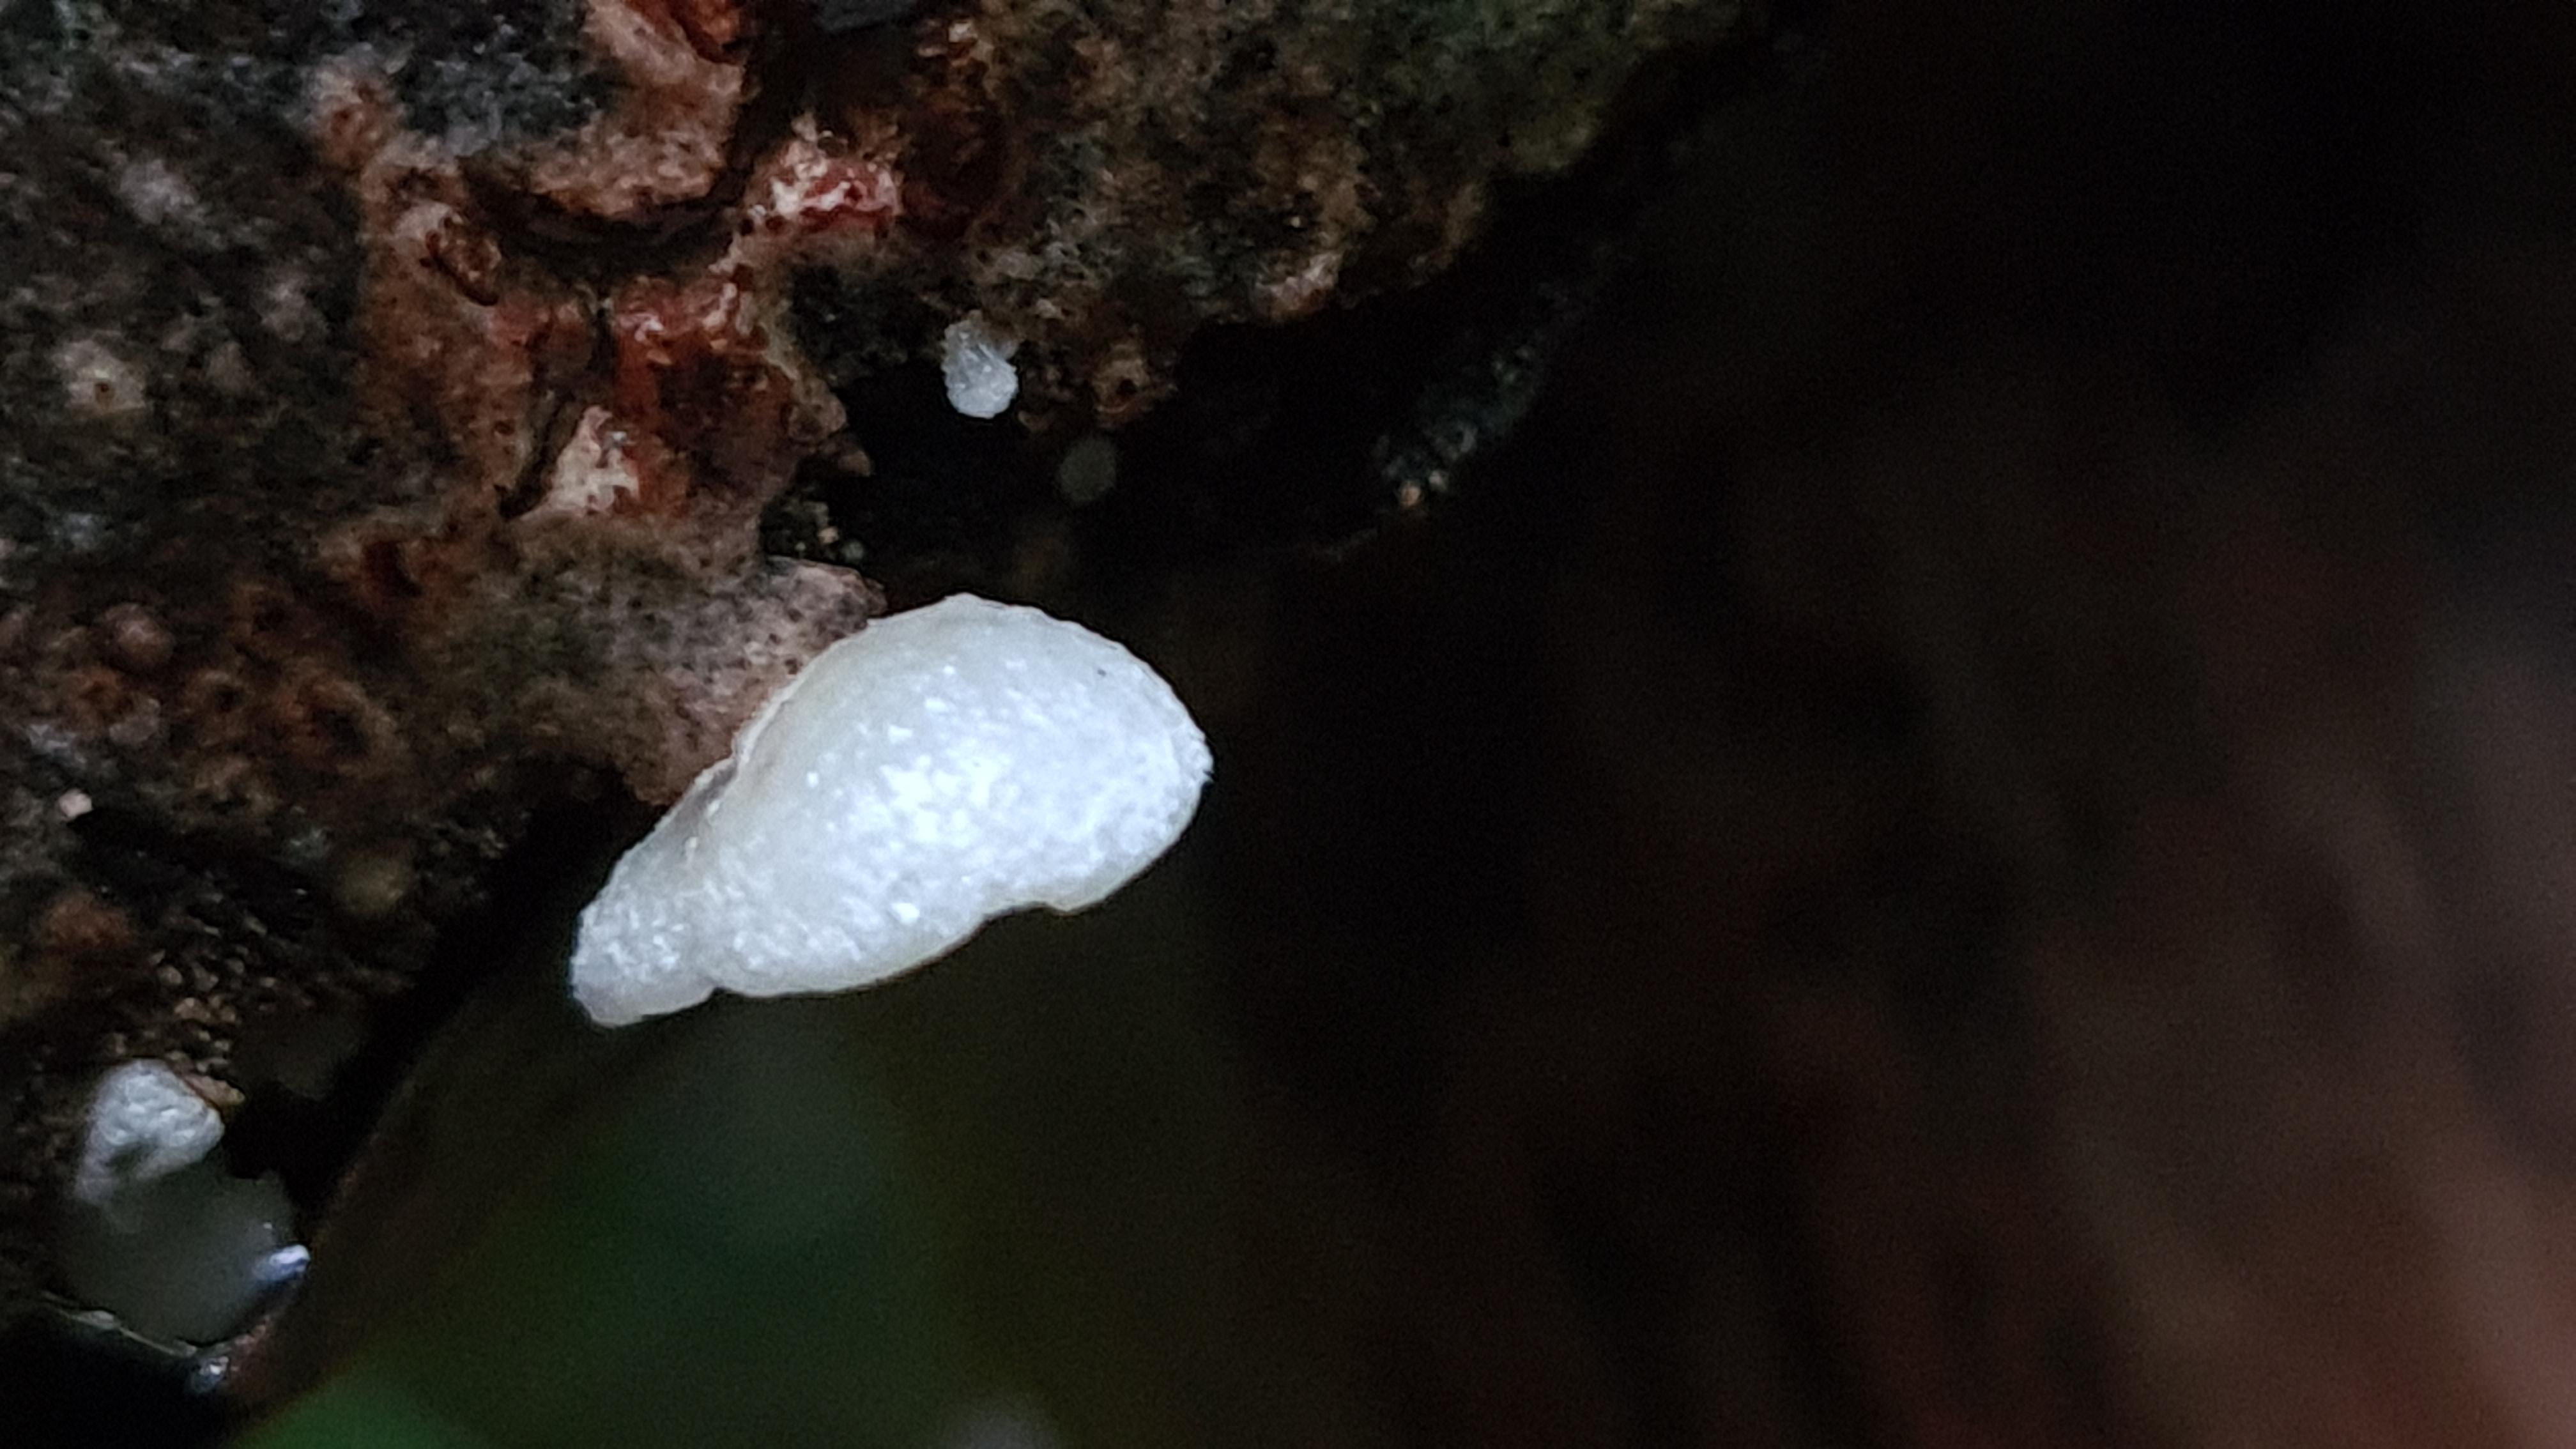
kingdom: Fungi
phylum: Basidiomycota
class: Agaricomycetes
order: Agaricales
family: Crepidotaceae
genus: Crepidotus
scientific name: Crepidotus mollis
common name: blød muslingesvamp
